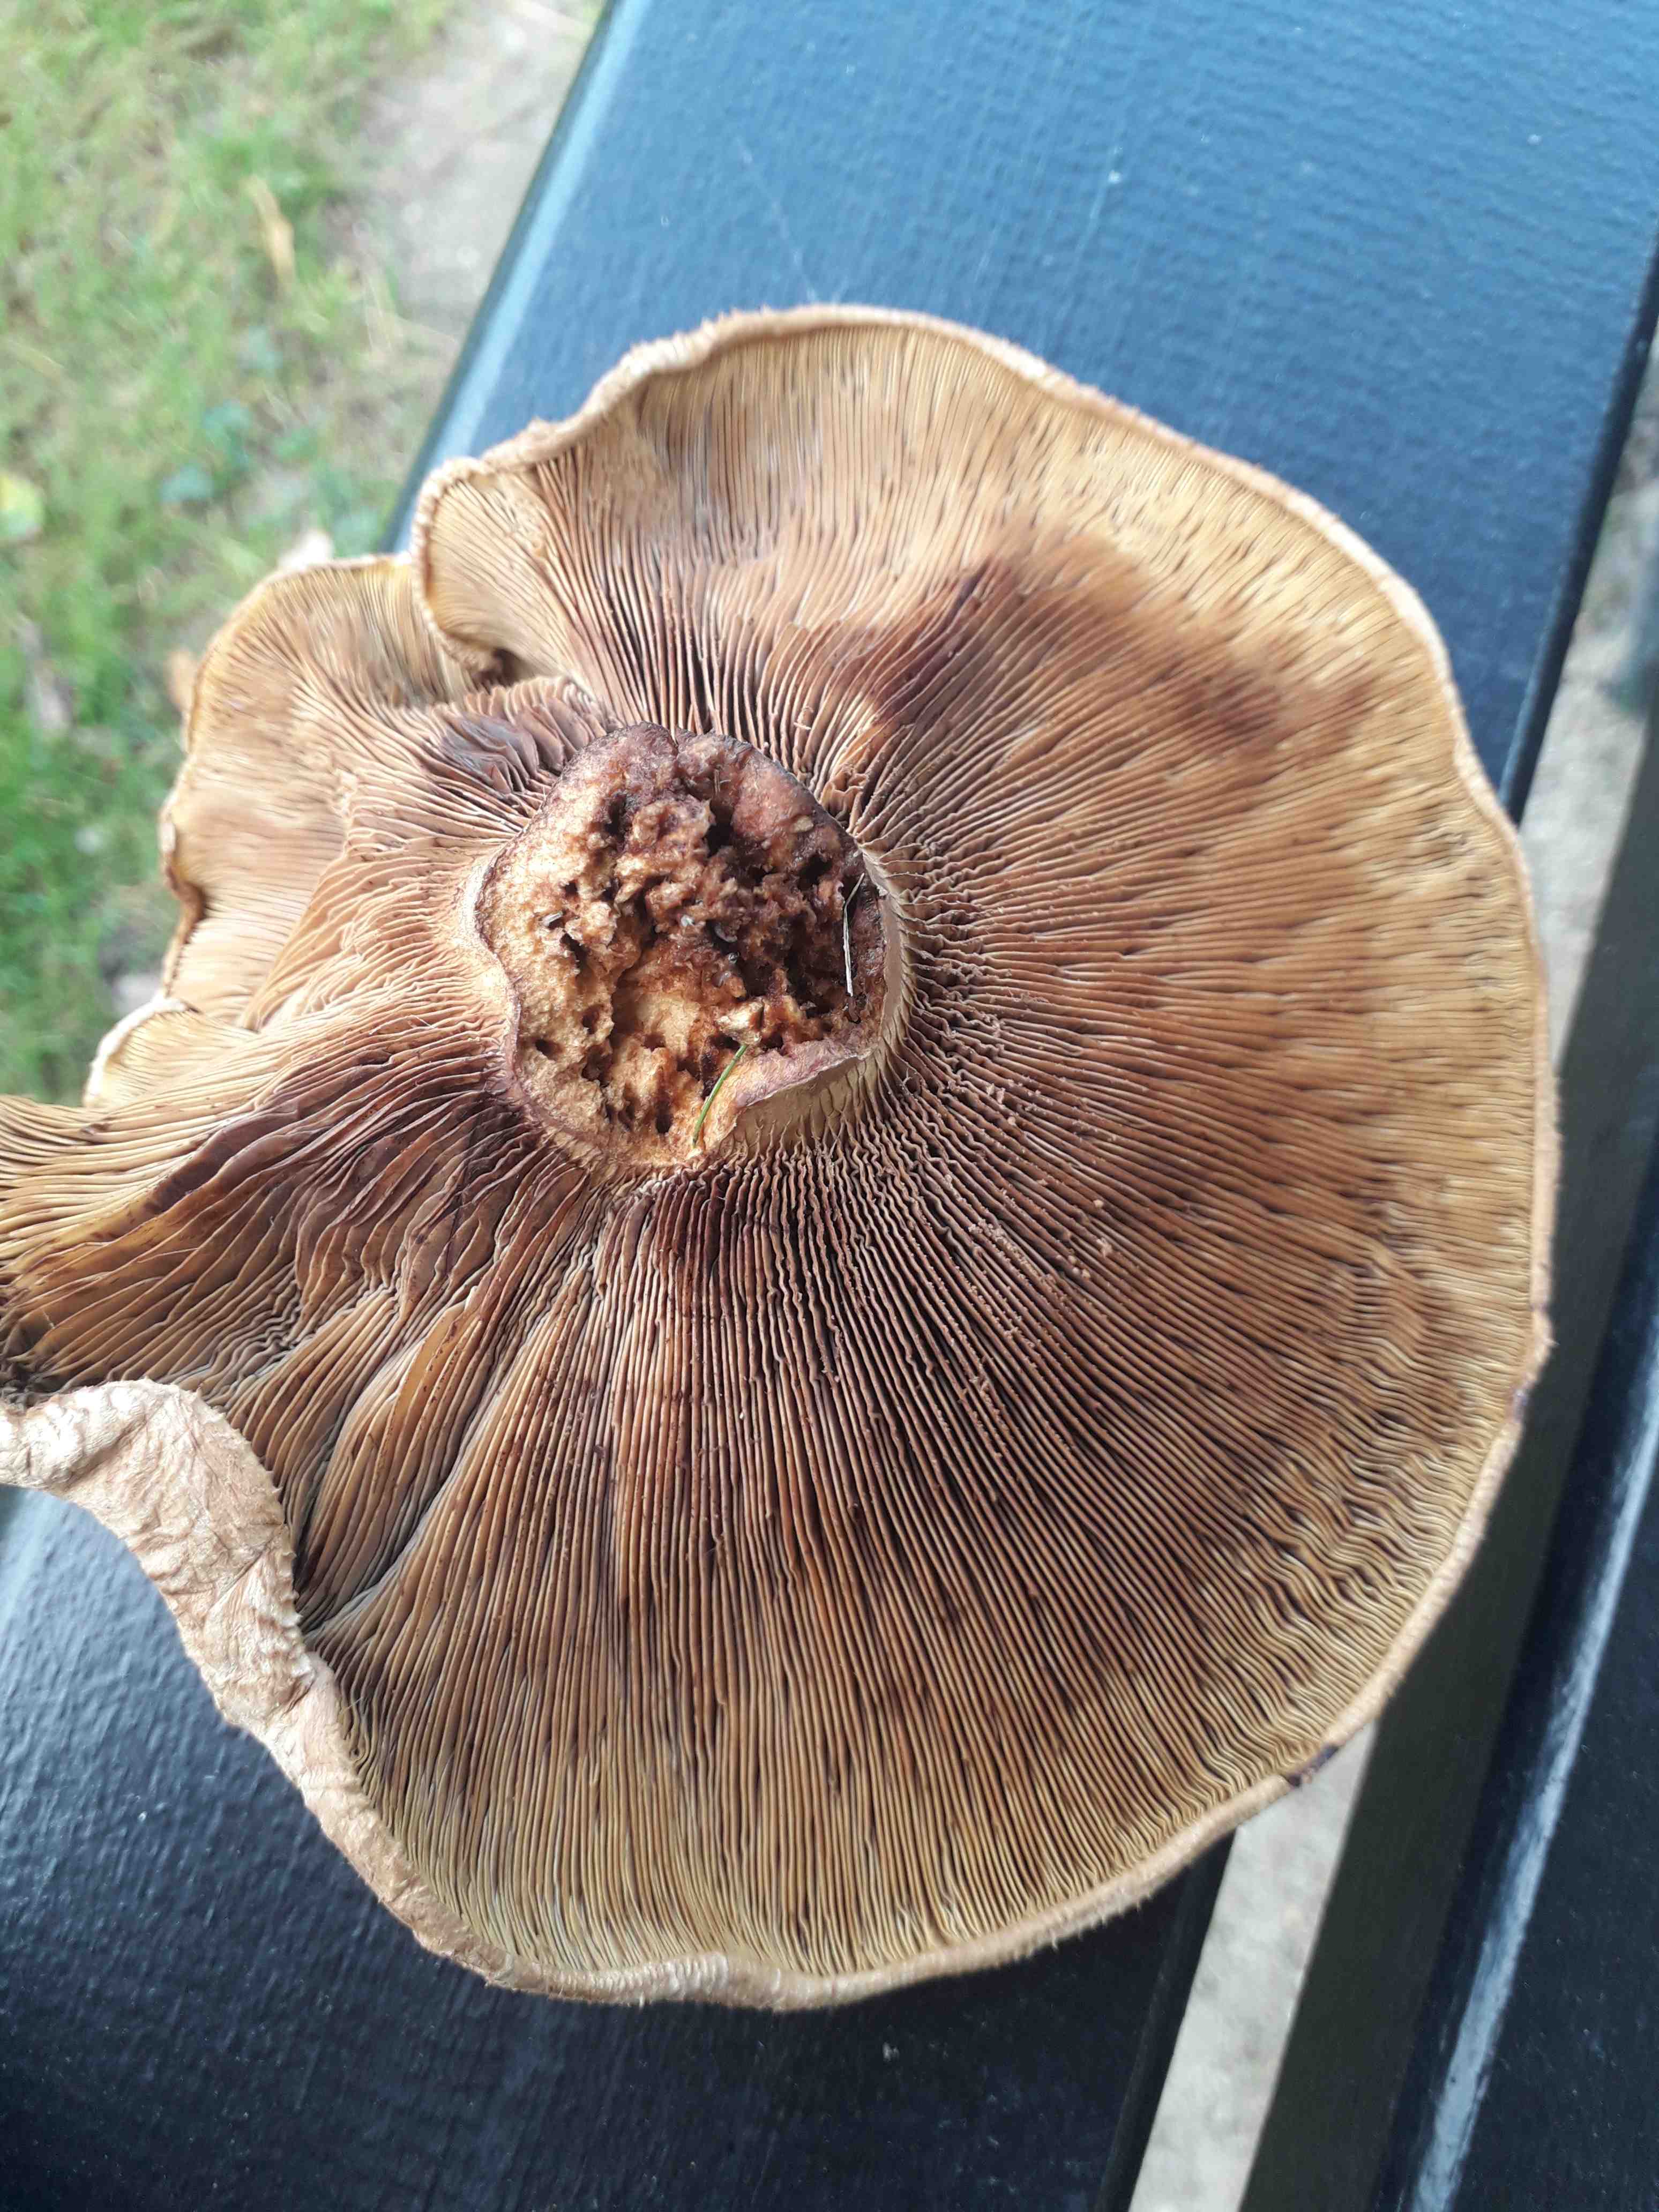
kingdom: Fungi
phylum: Basidiomycota
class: Agaricomycetes
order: Boletales
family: Paxillaceae
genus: Paxillus
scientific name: Paxillus
